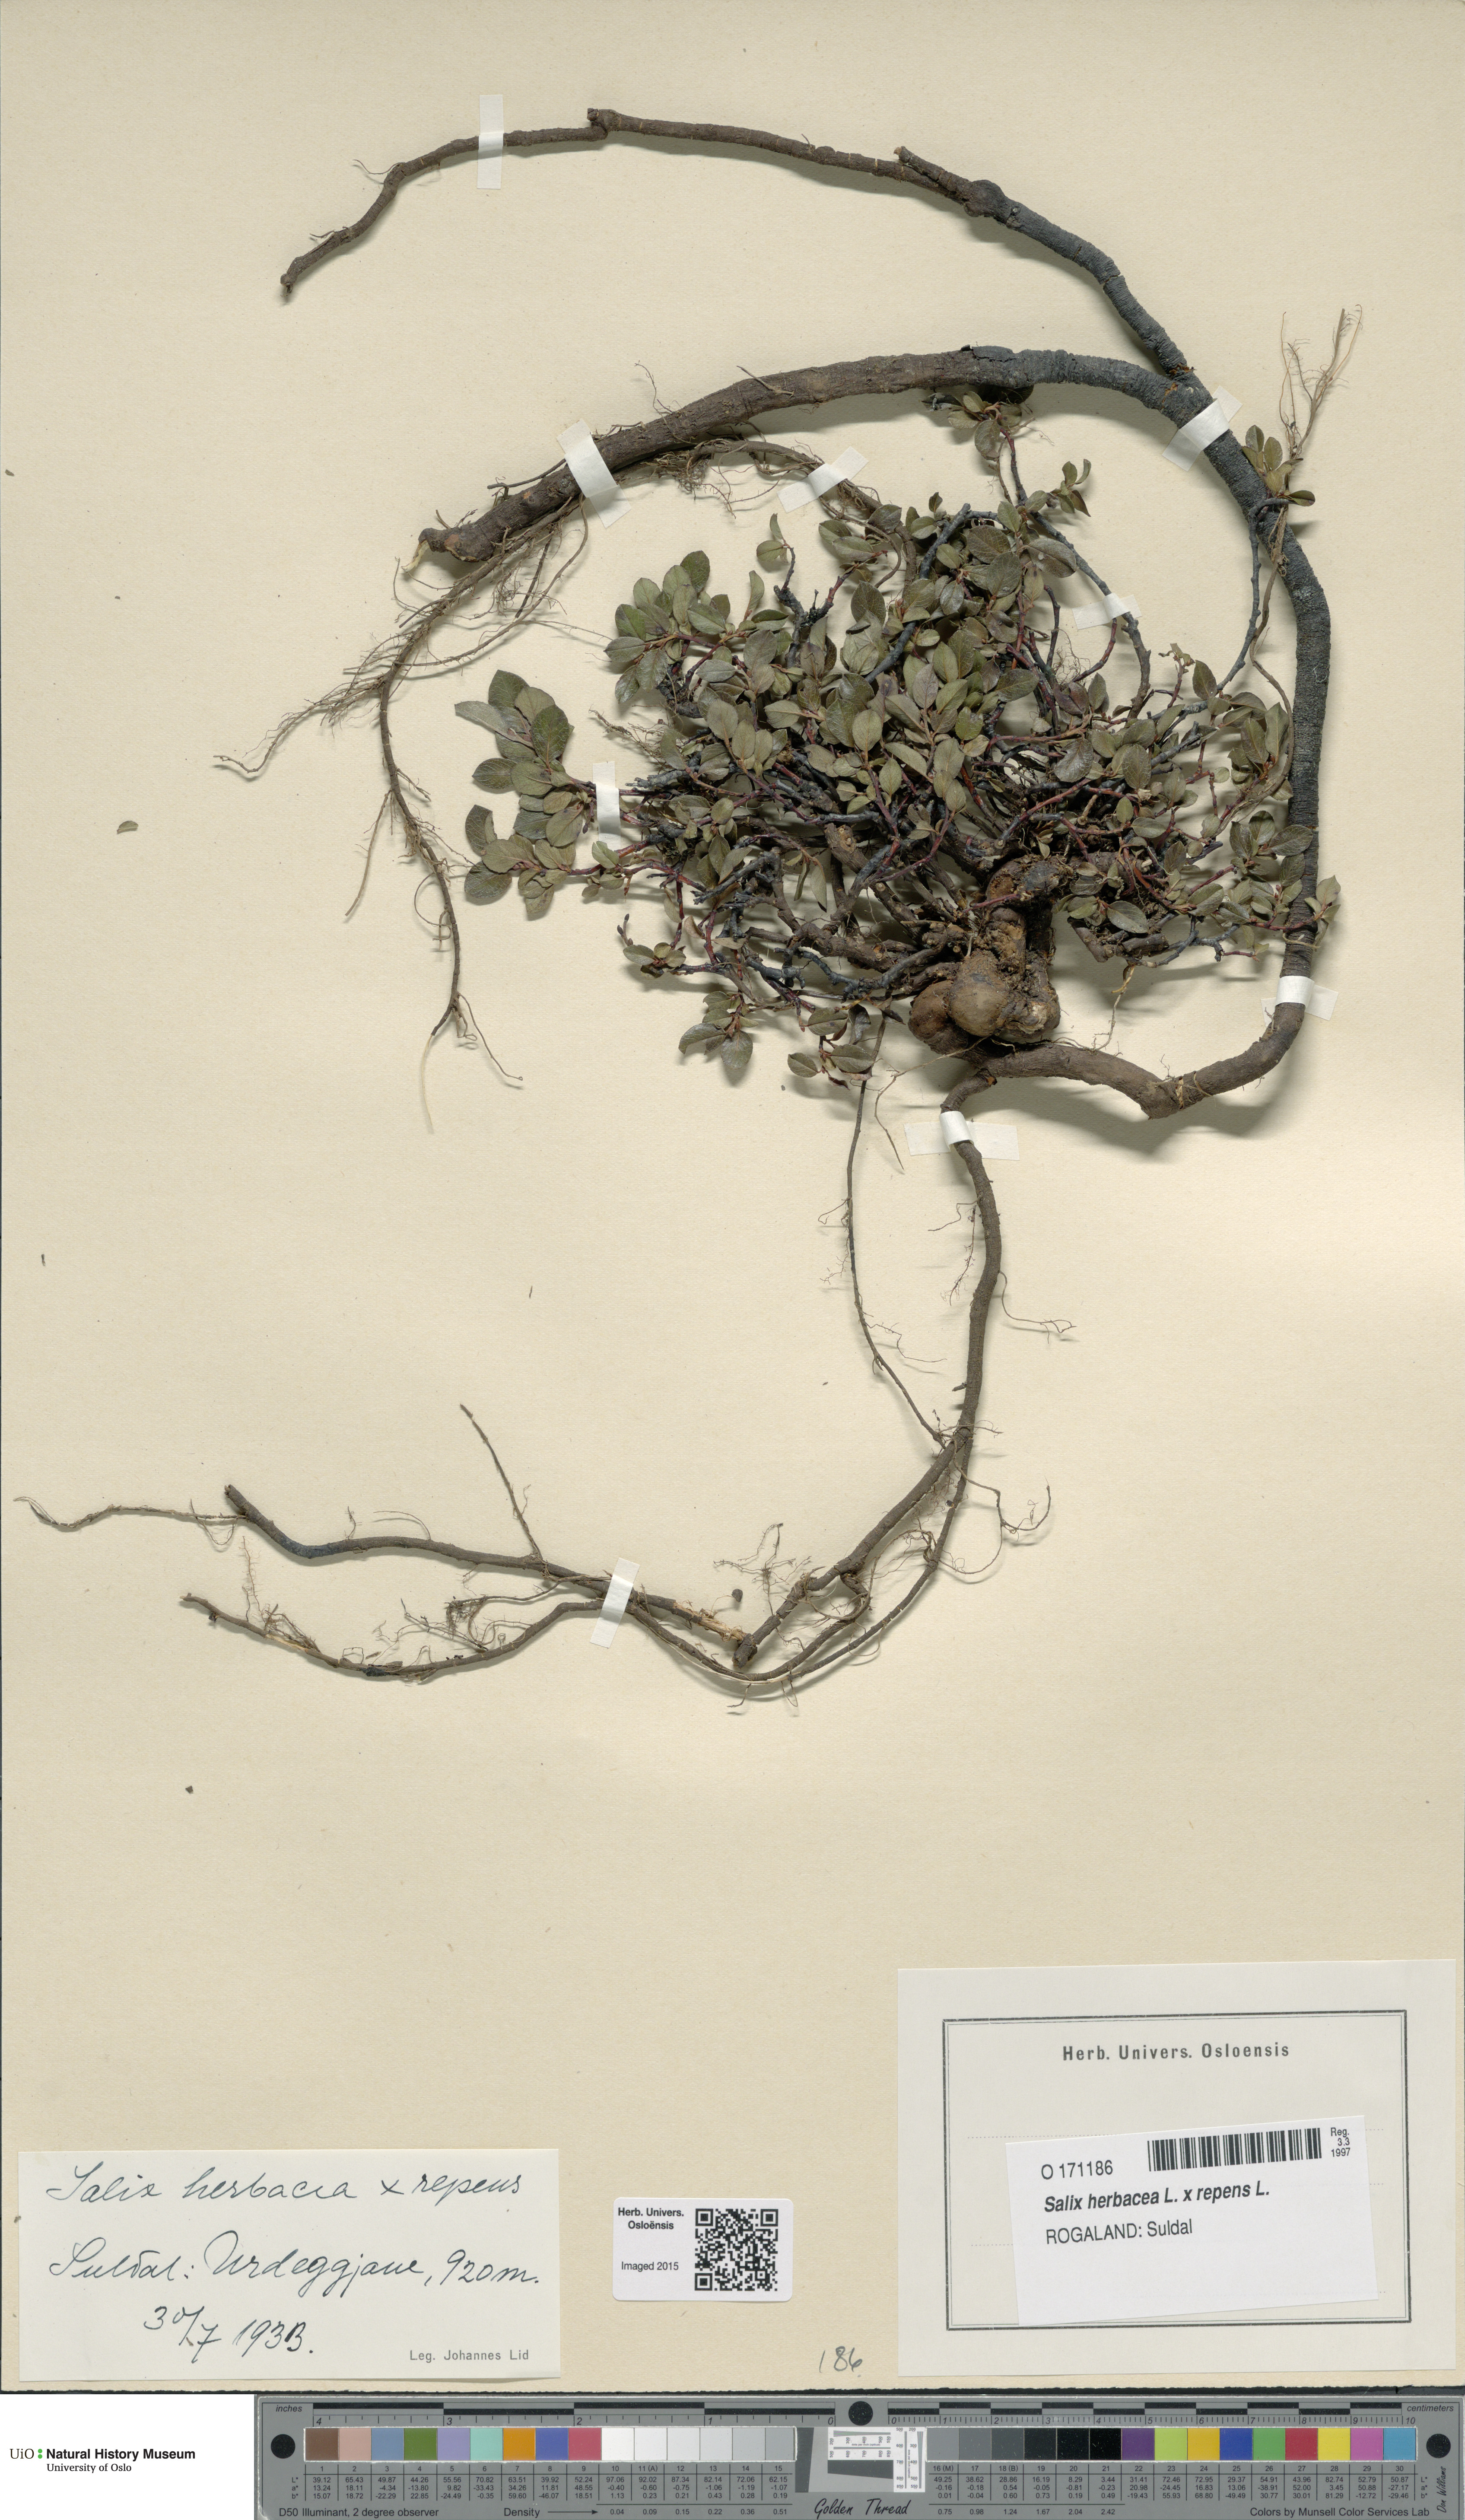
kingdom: Plantae
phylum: Tracheophyta
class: Magnoliopsida
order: Malpighiales
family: Salicaceae
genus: Salix
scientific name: Salix
